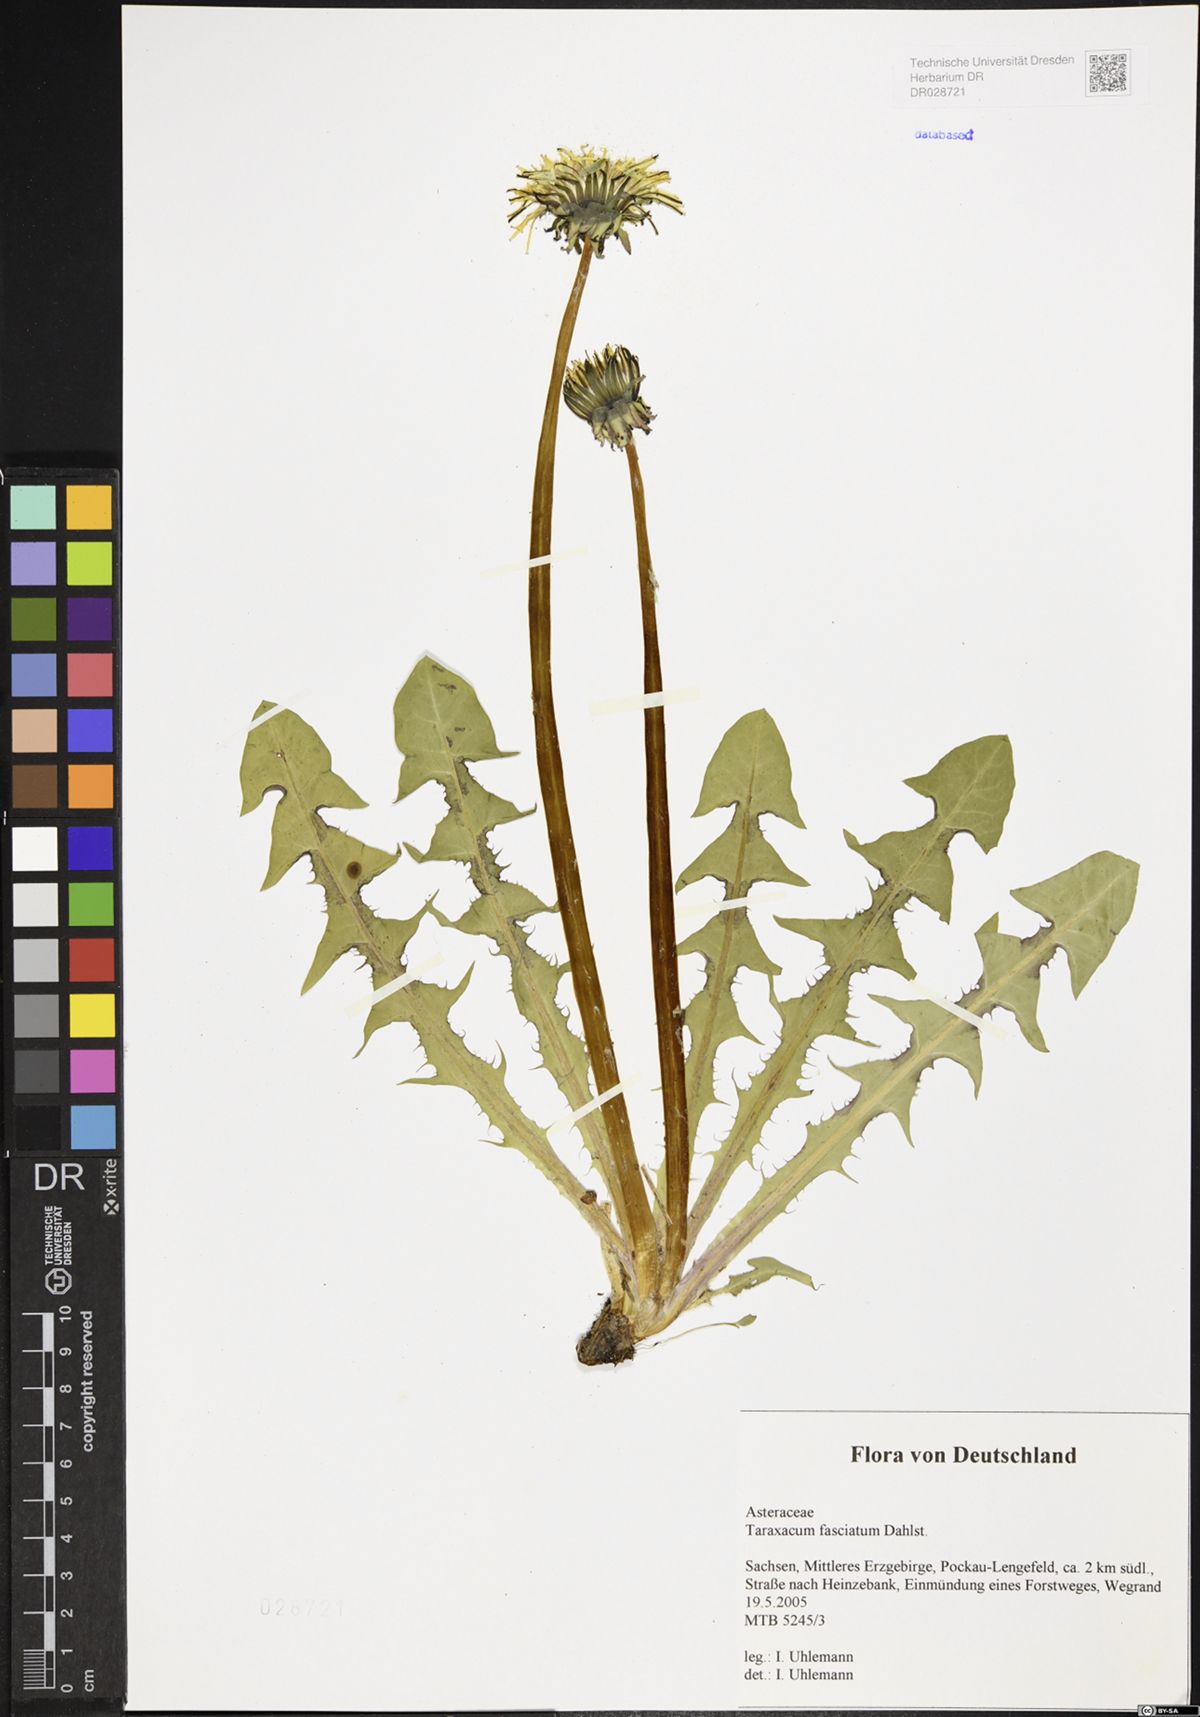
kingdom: Plantae
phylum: Tracheophyta
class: Magnoliopsida
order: Asterales
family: Asteraceae
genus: Taraxacum
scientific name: Taraxacum fasciatum
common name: Dense-bracted dandelion
